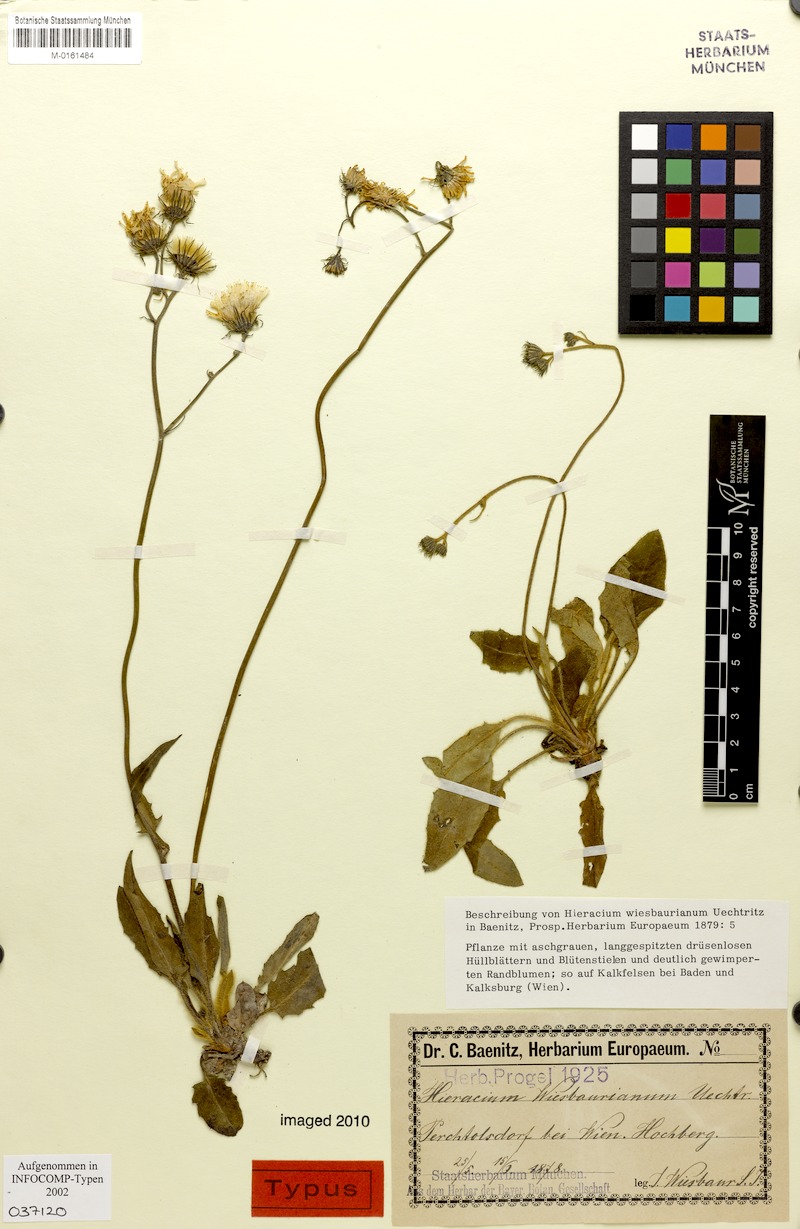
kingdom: Plantae
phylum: Tracheophyta
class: Magnoliopsida
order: Asterales
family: Asteraceae
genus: Hieracium
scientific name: Hieracium hypochoeroides
